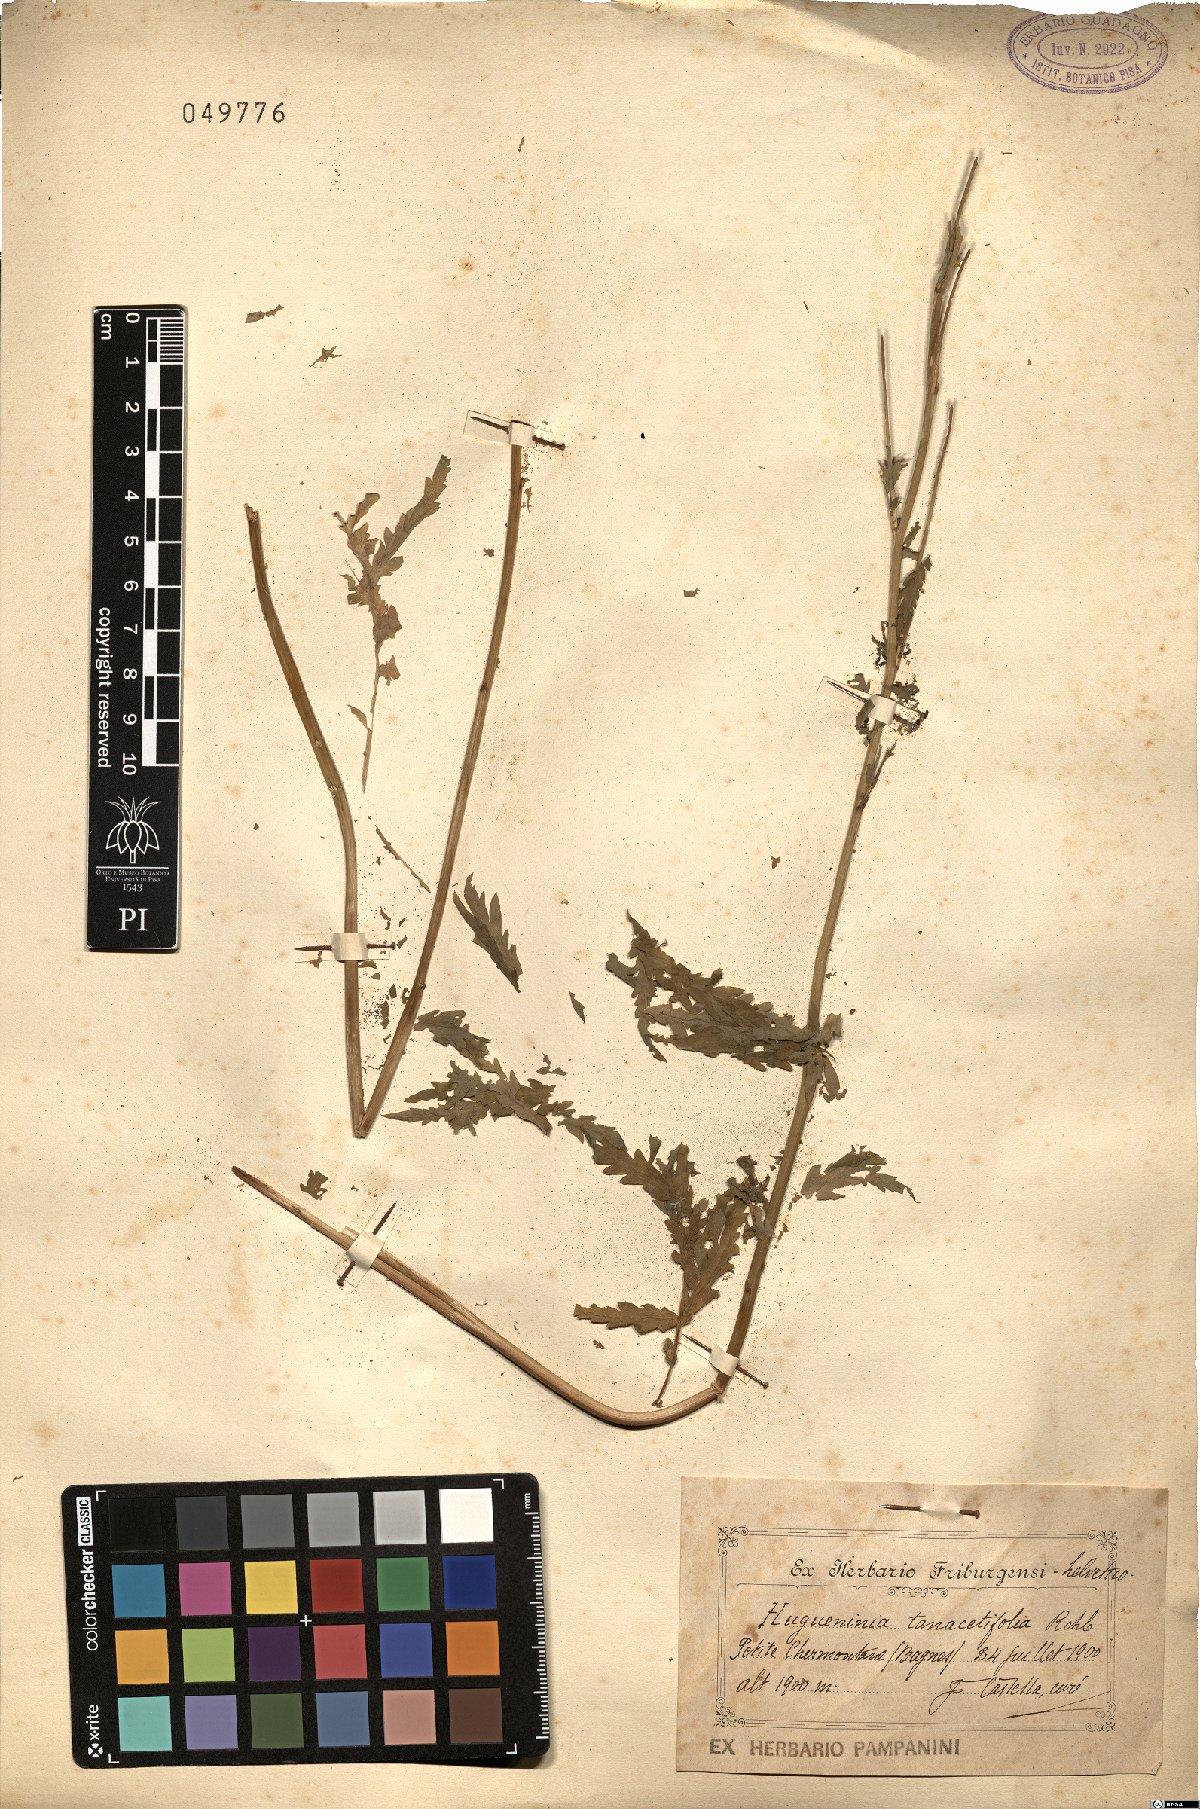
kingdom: Plantae
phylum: Tracheophyta
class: Magnoliopsida
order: Brassicales
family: Brassicaceae
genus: Descurainia
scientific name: Descurainia tanacetifolia
